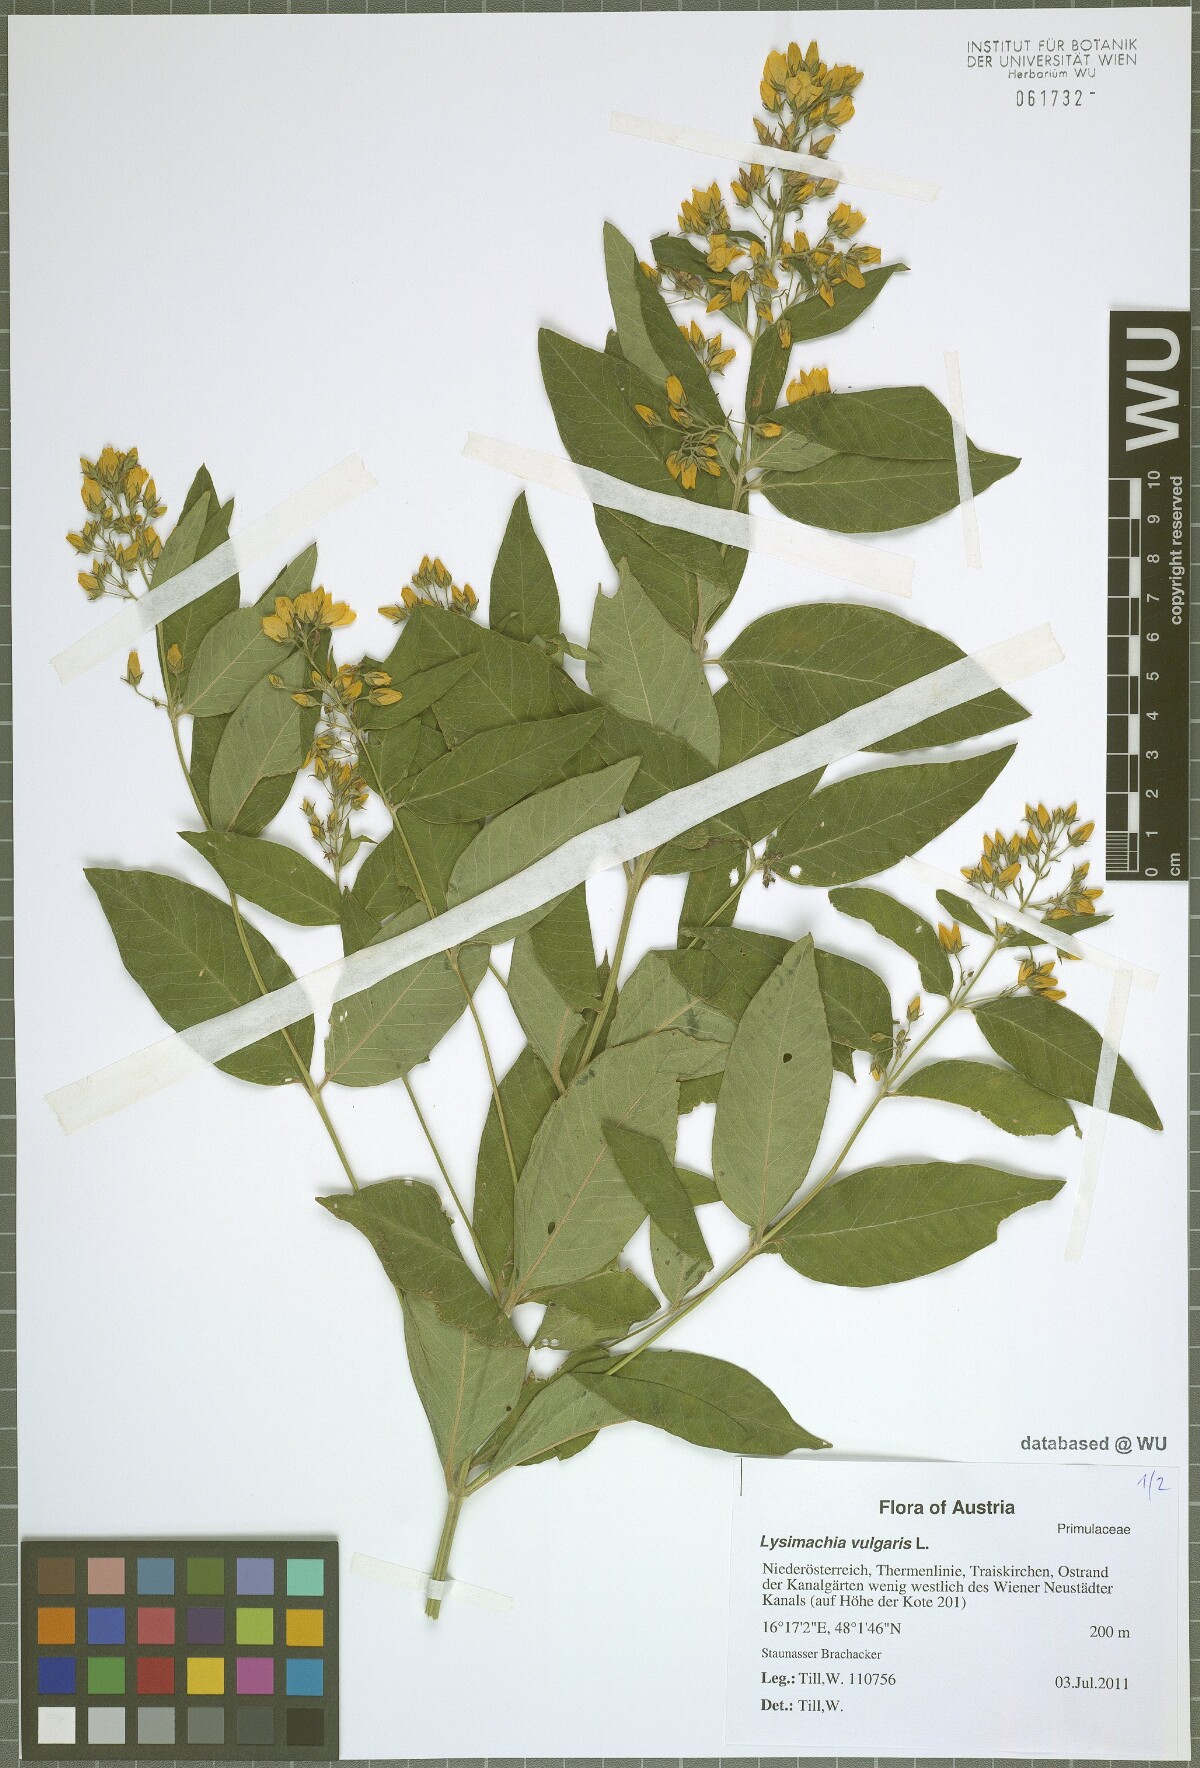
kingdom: Plantae
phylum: Tracheophyta
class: Magnoliopsida
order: Ericales
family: Primulaceae
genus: Lysimachia
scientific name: Lysimachia vulgaris
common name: Yellow loosestrife
